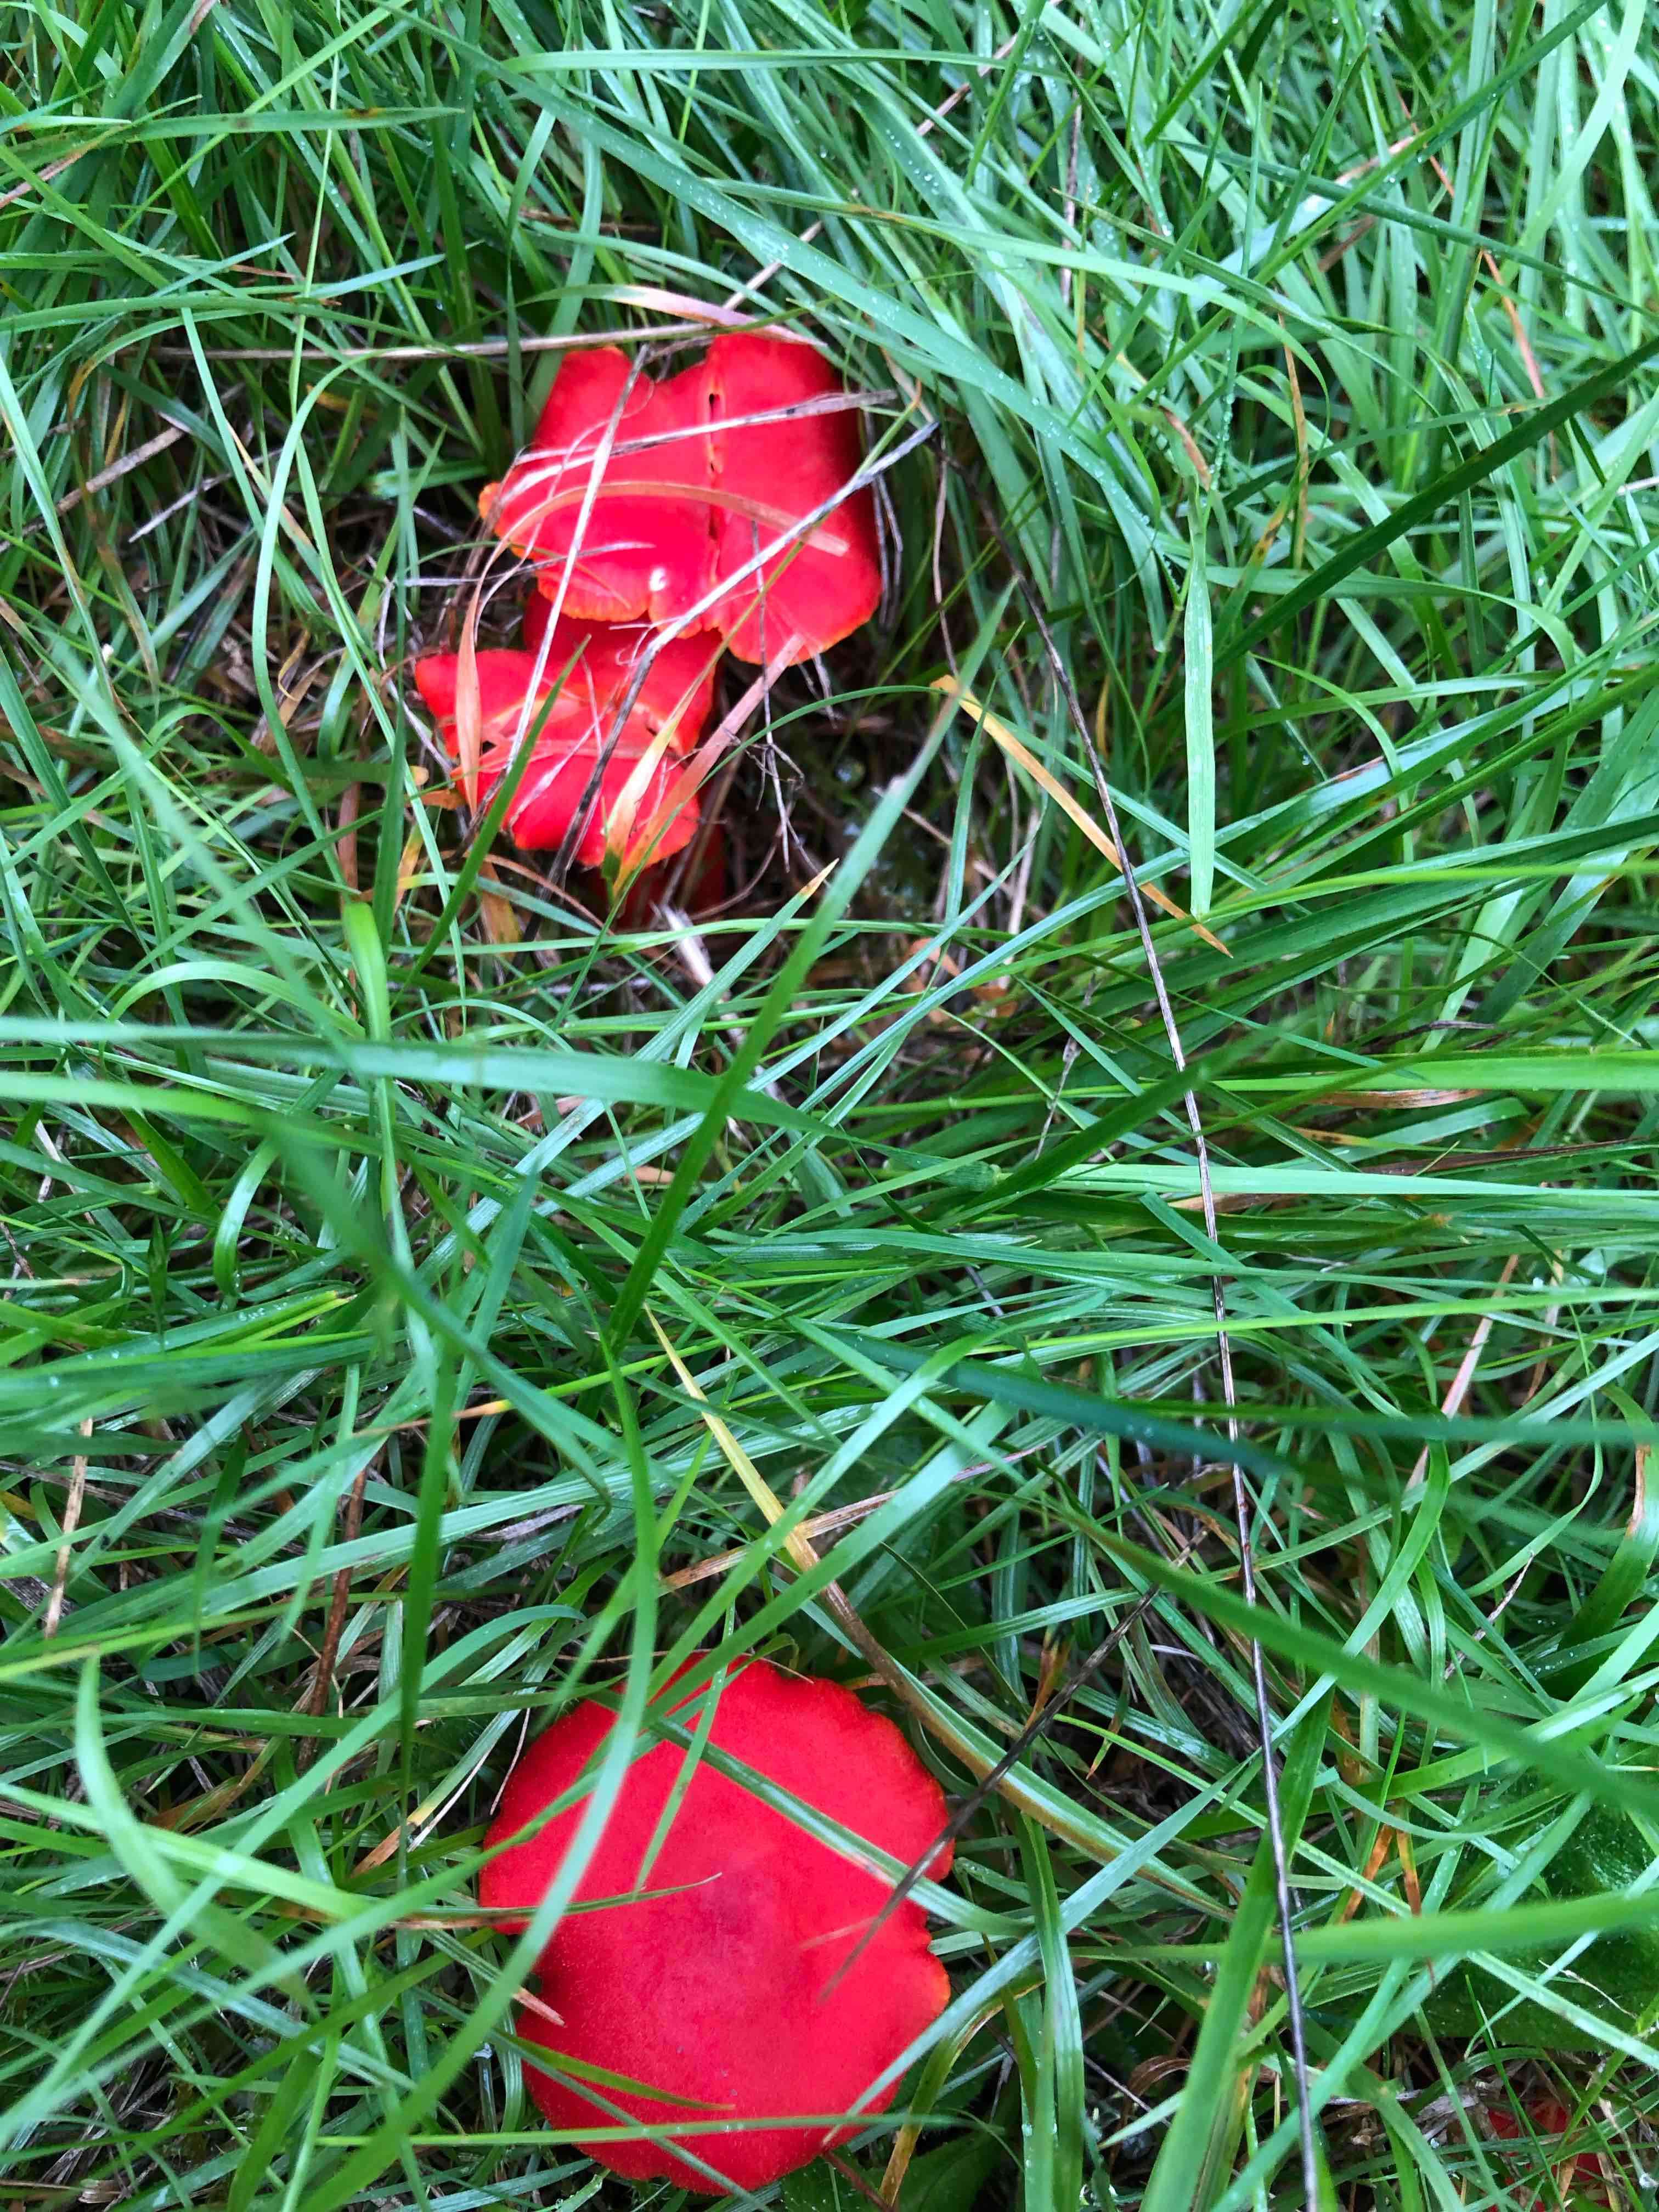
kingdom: Fungi
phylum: Basidiomycota
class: Agaricomycetes
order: Agaricales
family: Hygrophoraceae
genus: Hygrocybe
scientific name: Hygrocybe miniata
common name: mønje-vokshat
